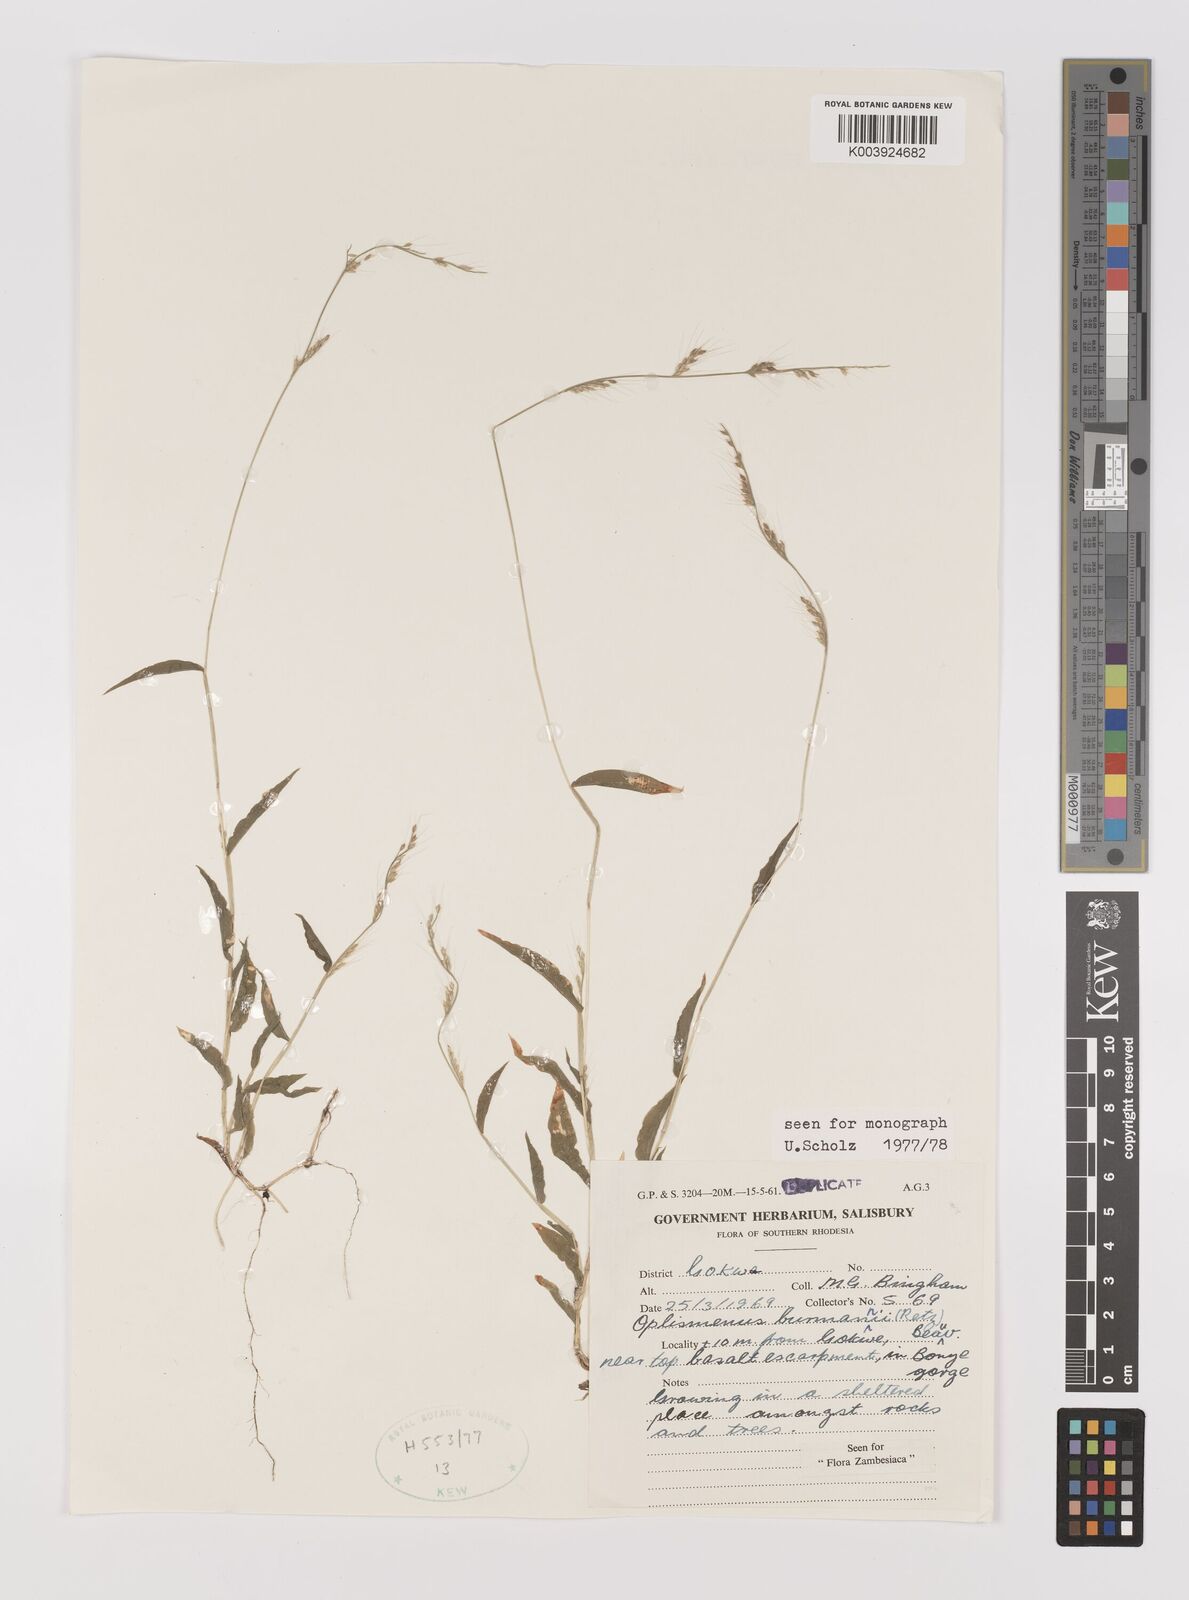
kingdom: Plantae
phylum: Tracheophyta
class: Liliopsida
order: Poales
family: Poaceae
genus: Oplismenus
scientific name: Oplismenus burmanni
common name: Burmann's basketgrass
